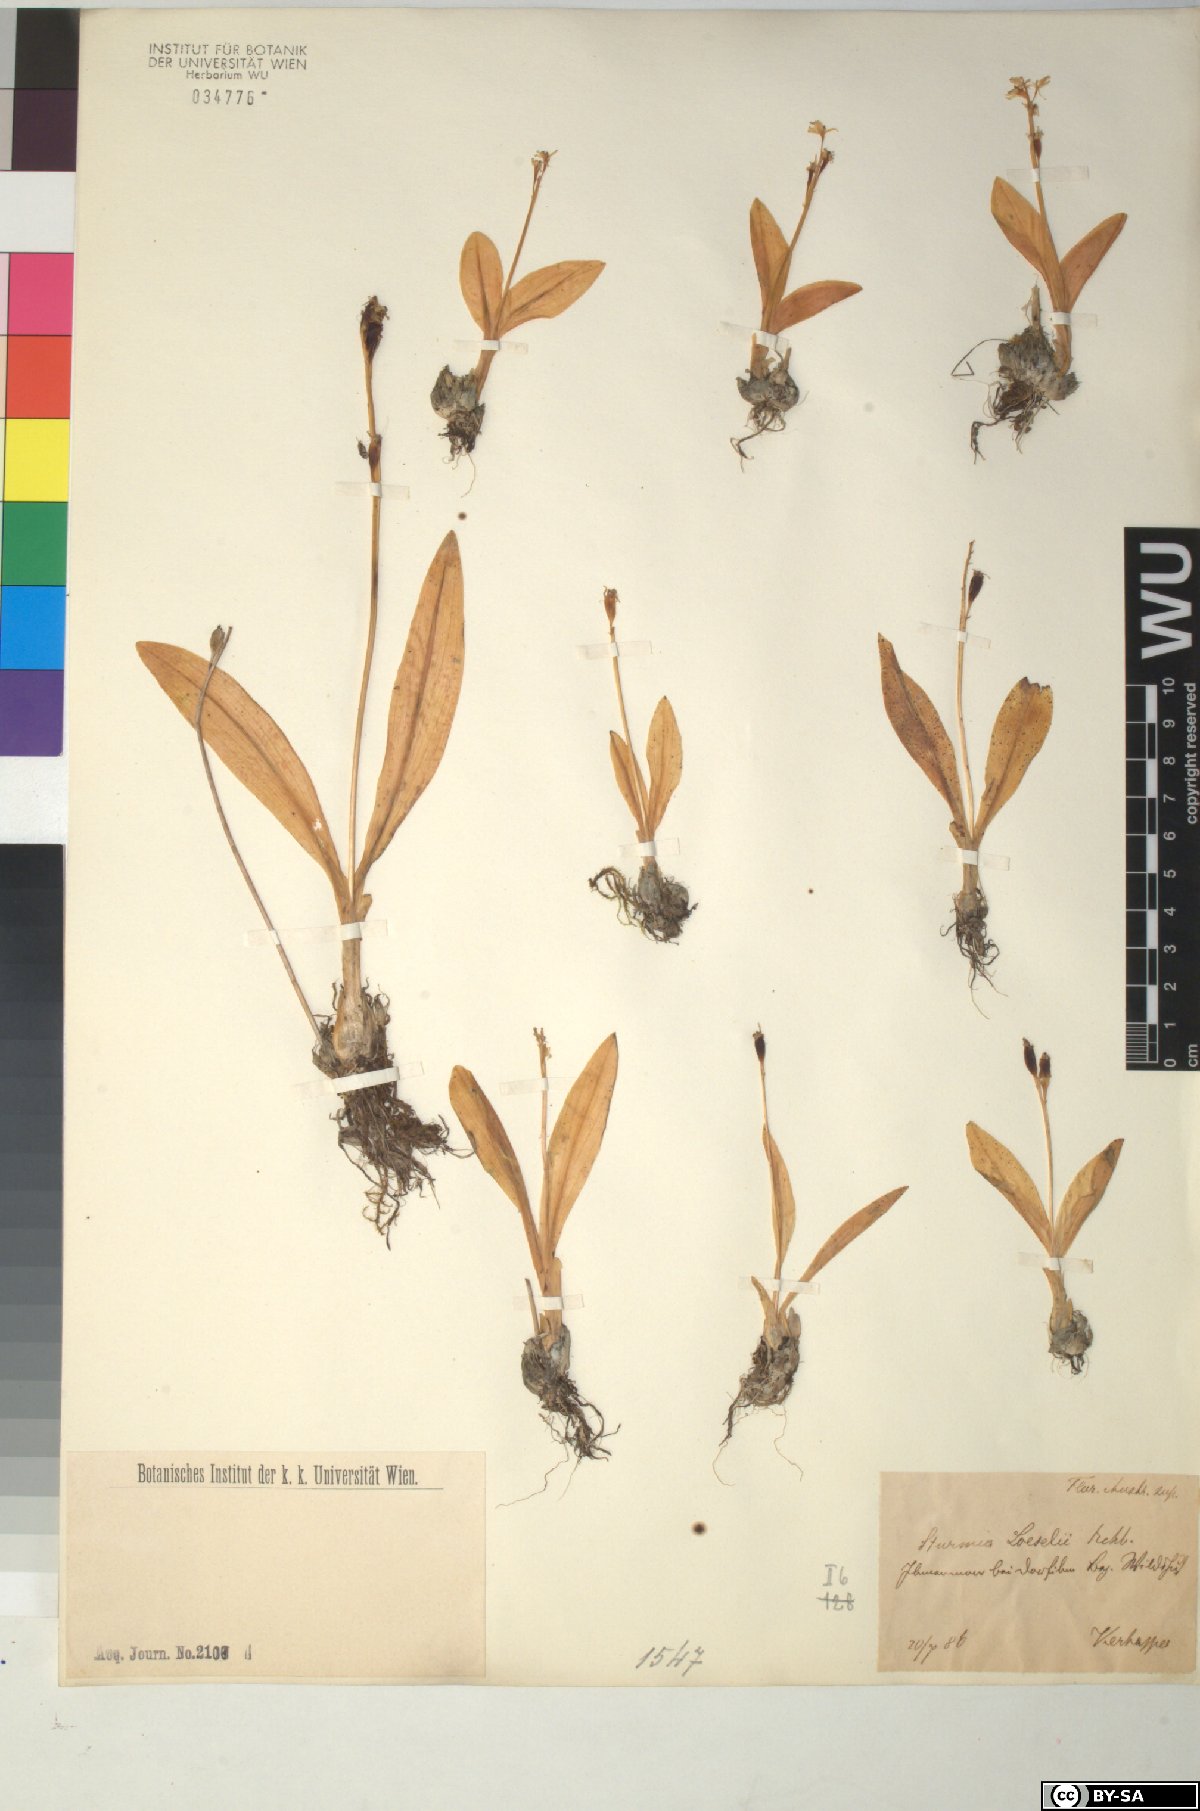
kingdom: Animalia
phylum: Arthropoda
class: Insecta
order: Coleoptera
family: Curculionidae
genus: Liparis
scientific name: Liparis loeselii
